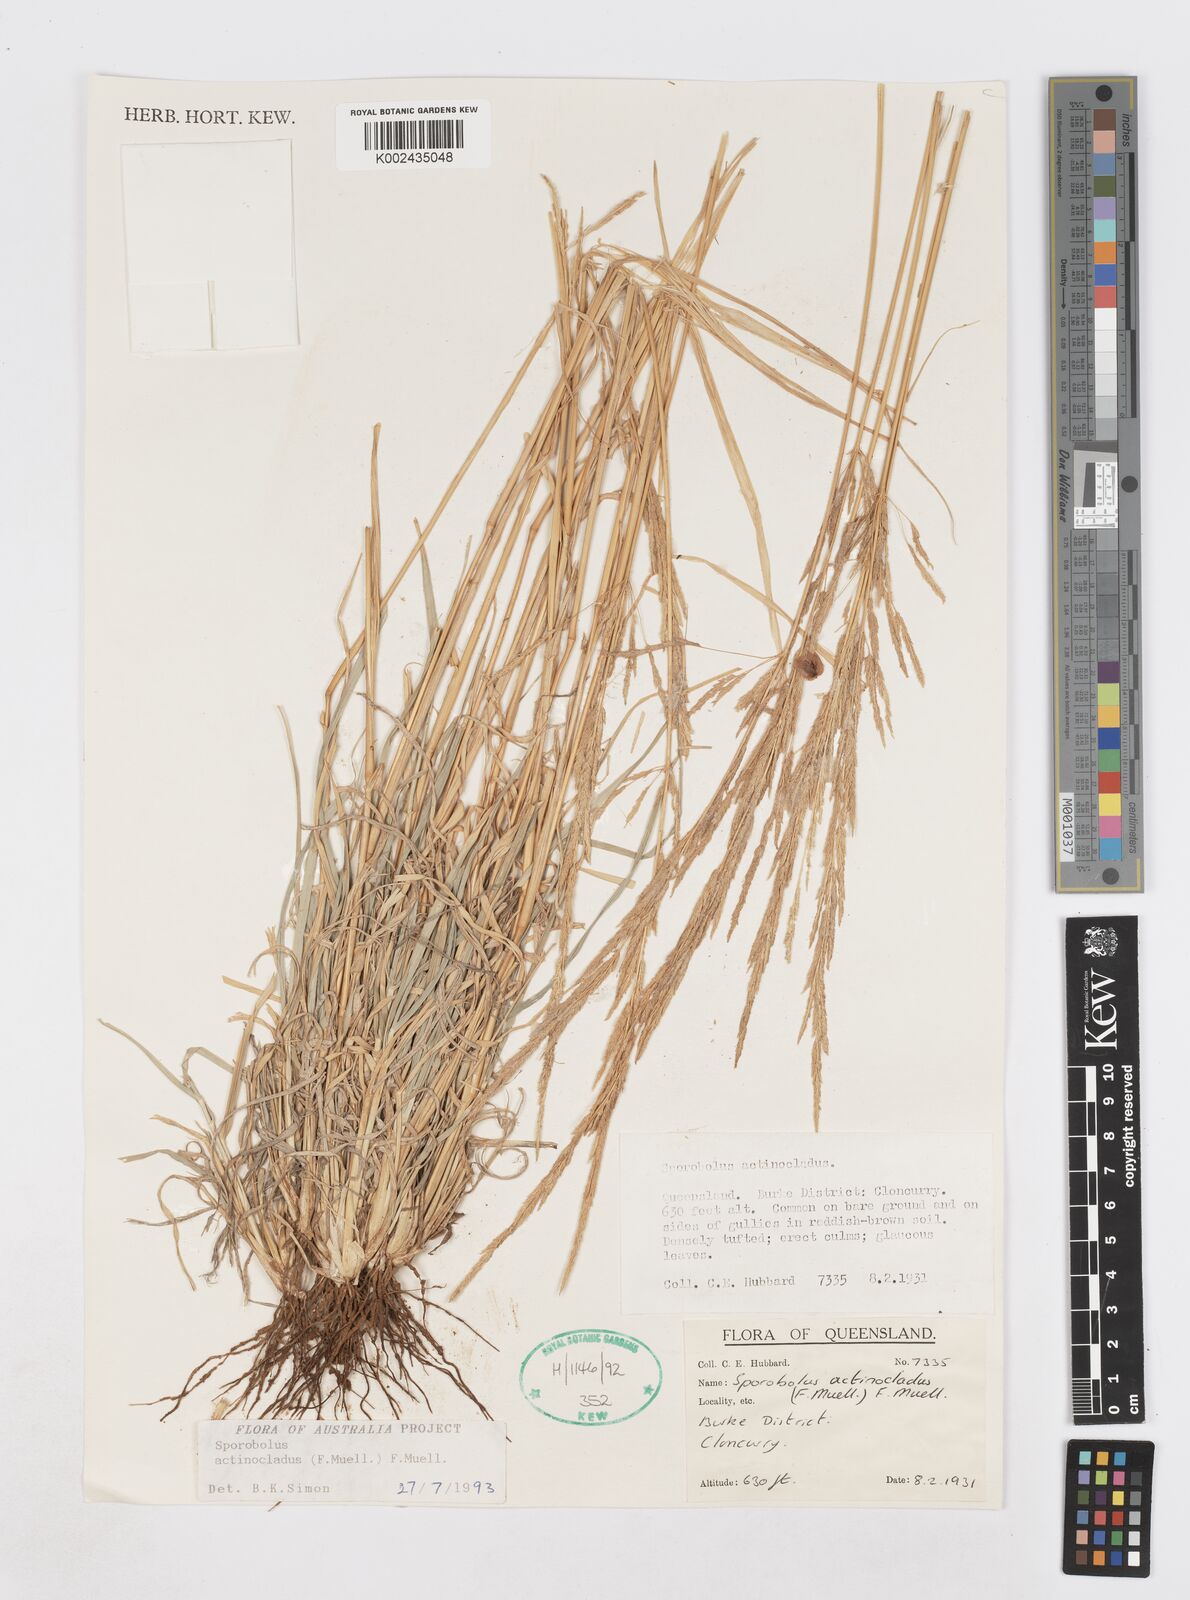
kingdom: Plantae
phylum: Tracheophyta
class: Liliopsida
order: Poales
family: Poaceae
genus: Sporobolus
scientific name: Sporobolus actinocladus
